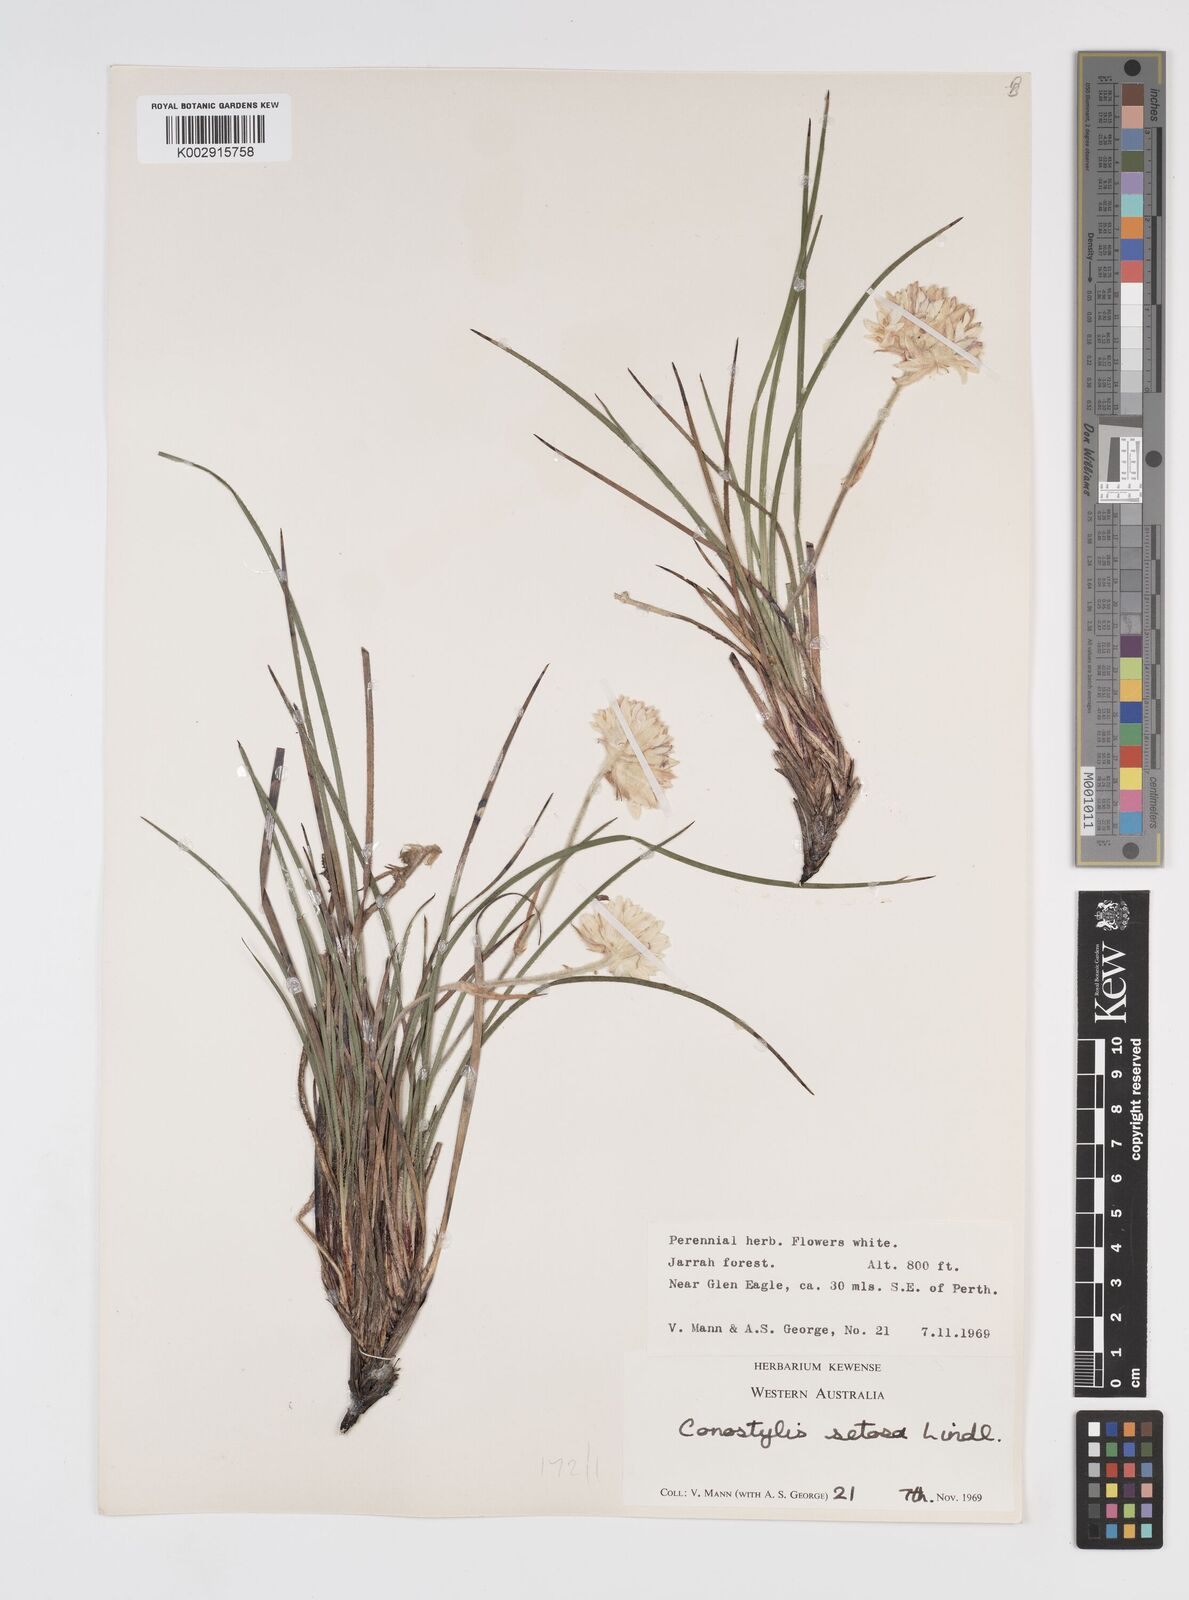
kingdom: Plantae
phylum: Tracheophyta
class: Liliopsida
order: Commelinales
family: Haemodoraceae
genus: Conostylis
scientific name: Conostylis setosa
